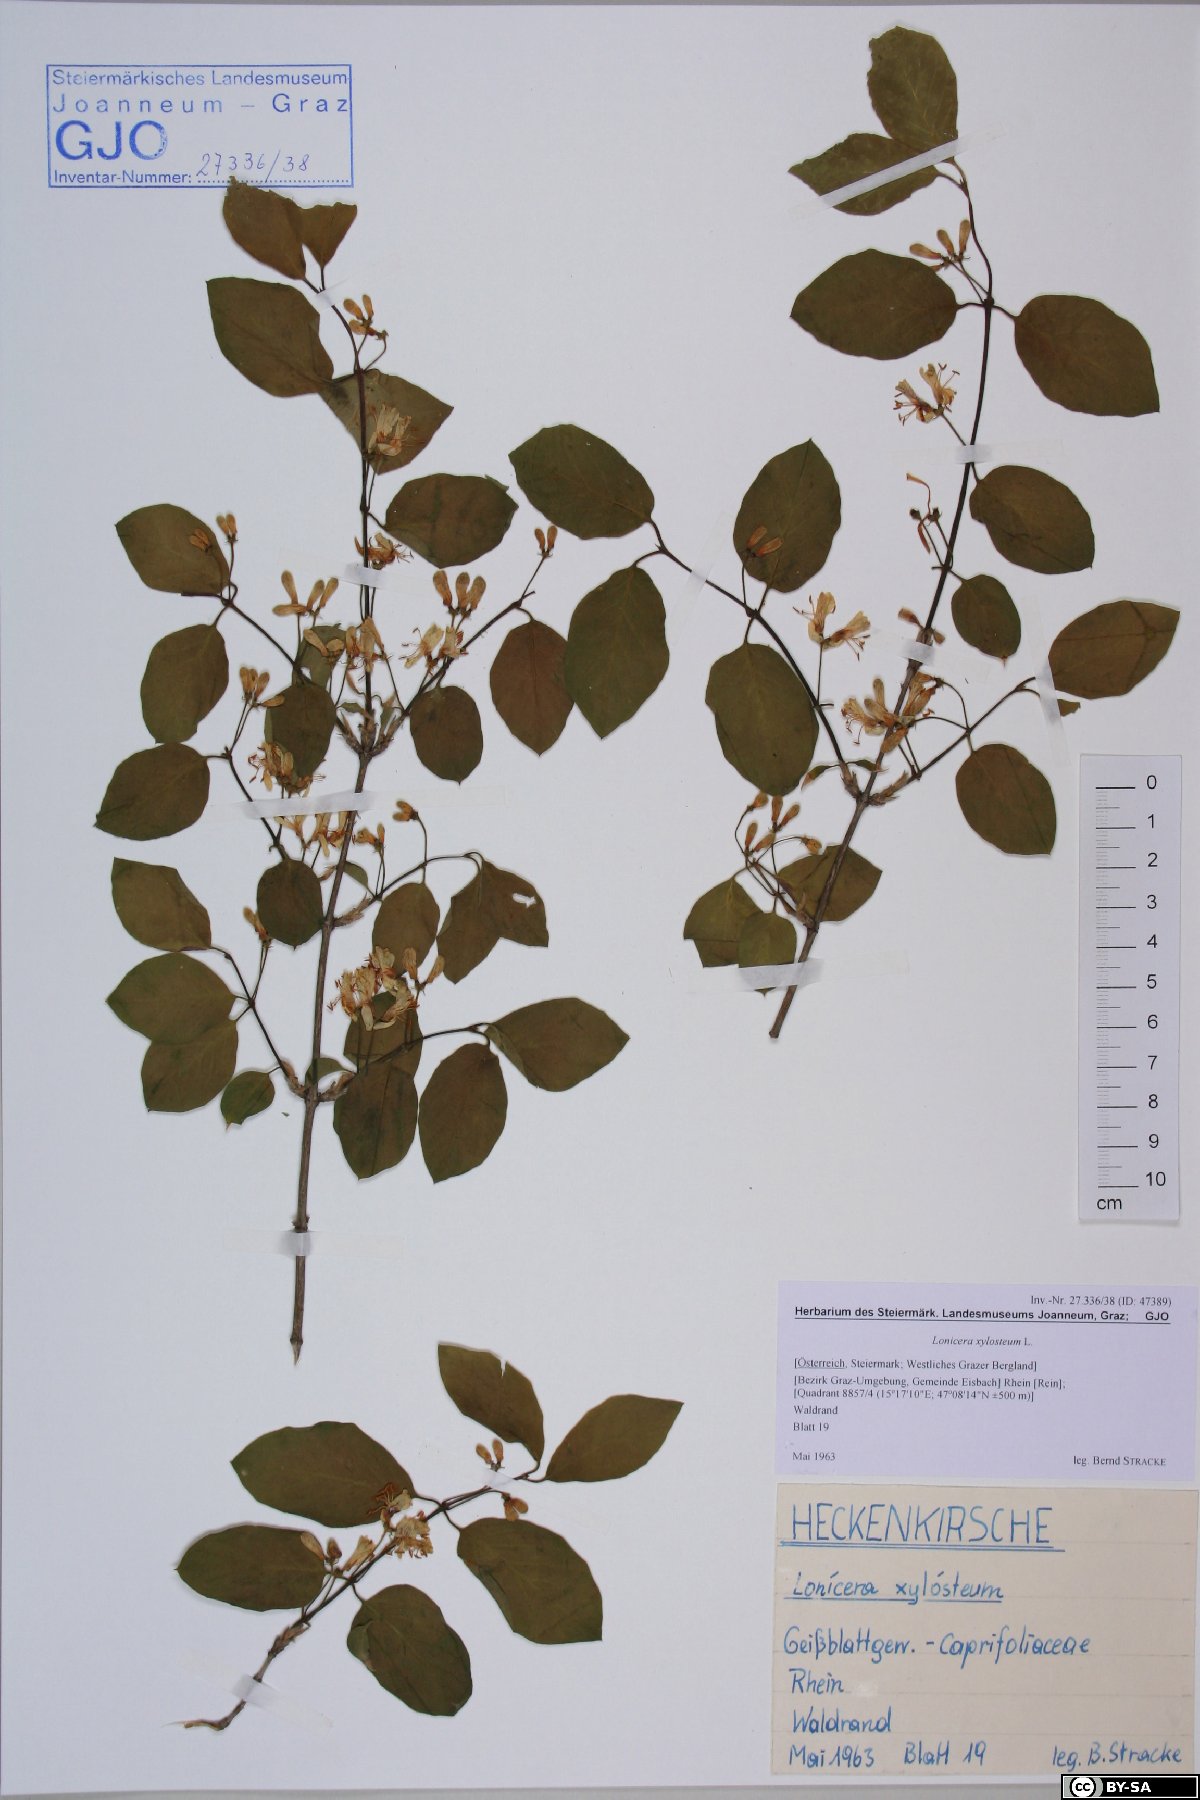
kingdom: Plantae
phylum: Tracheophyta
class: Magnoliopsida
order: Dipsacales
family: Caprifoliaceae
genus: Lonicera
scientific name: Lonicera xylosteum
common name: Fly honeysuckle
